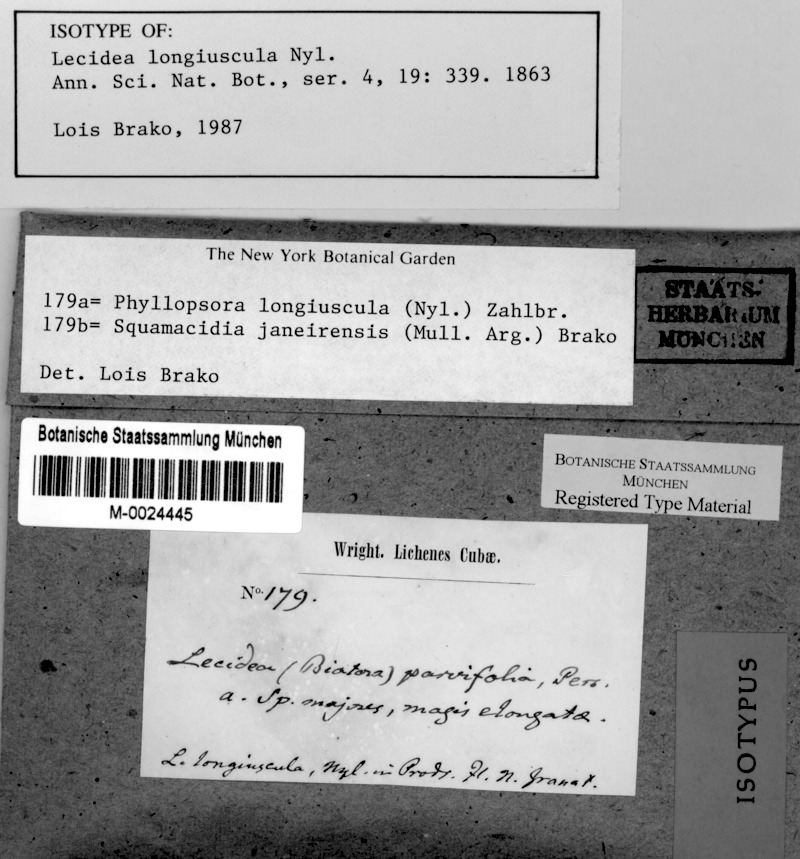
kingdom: Fungi
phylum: Ascomycota
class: Lecanoromycetes
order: Lecanorales
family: Ramalinaceae
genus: Phyllopsora
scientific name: Phyllopsora longiuscula
